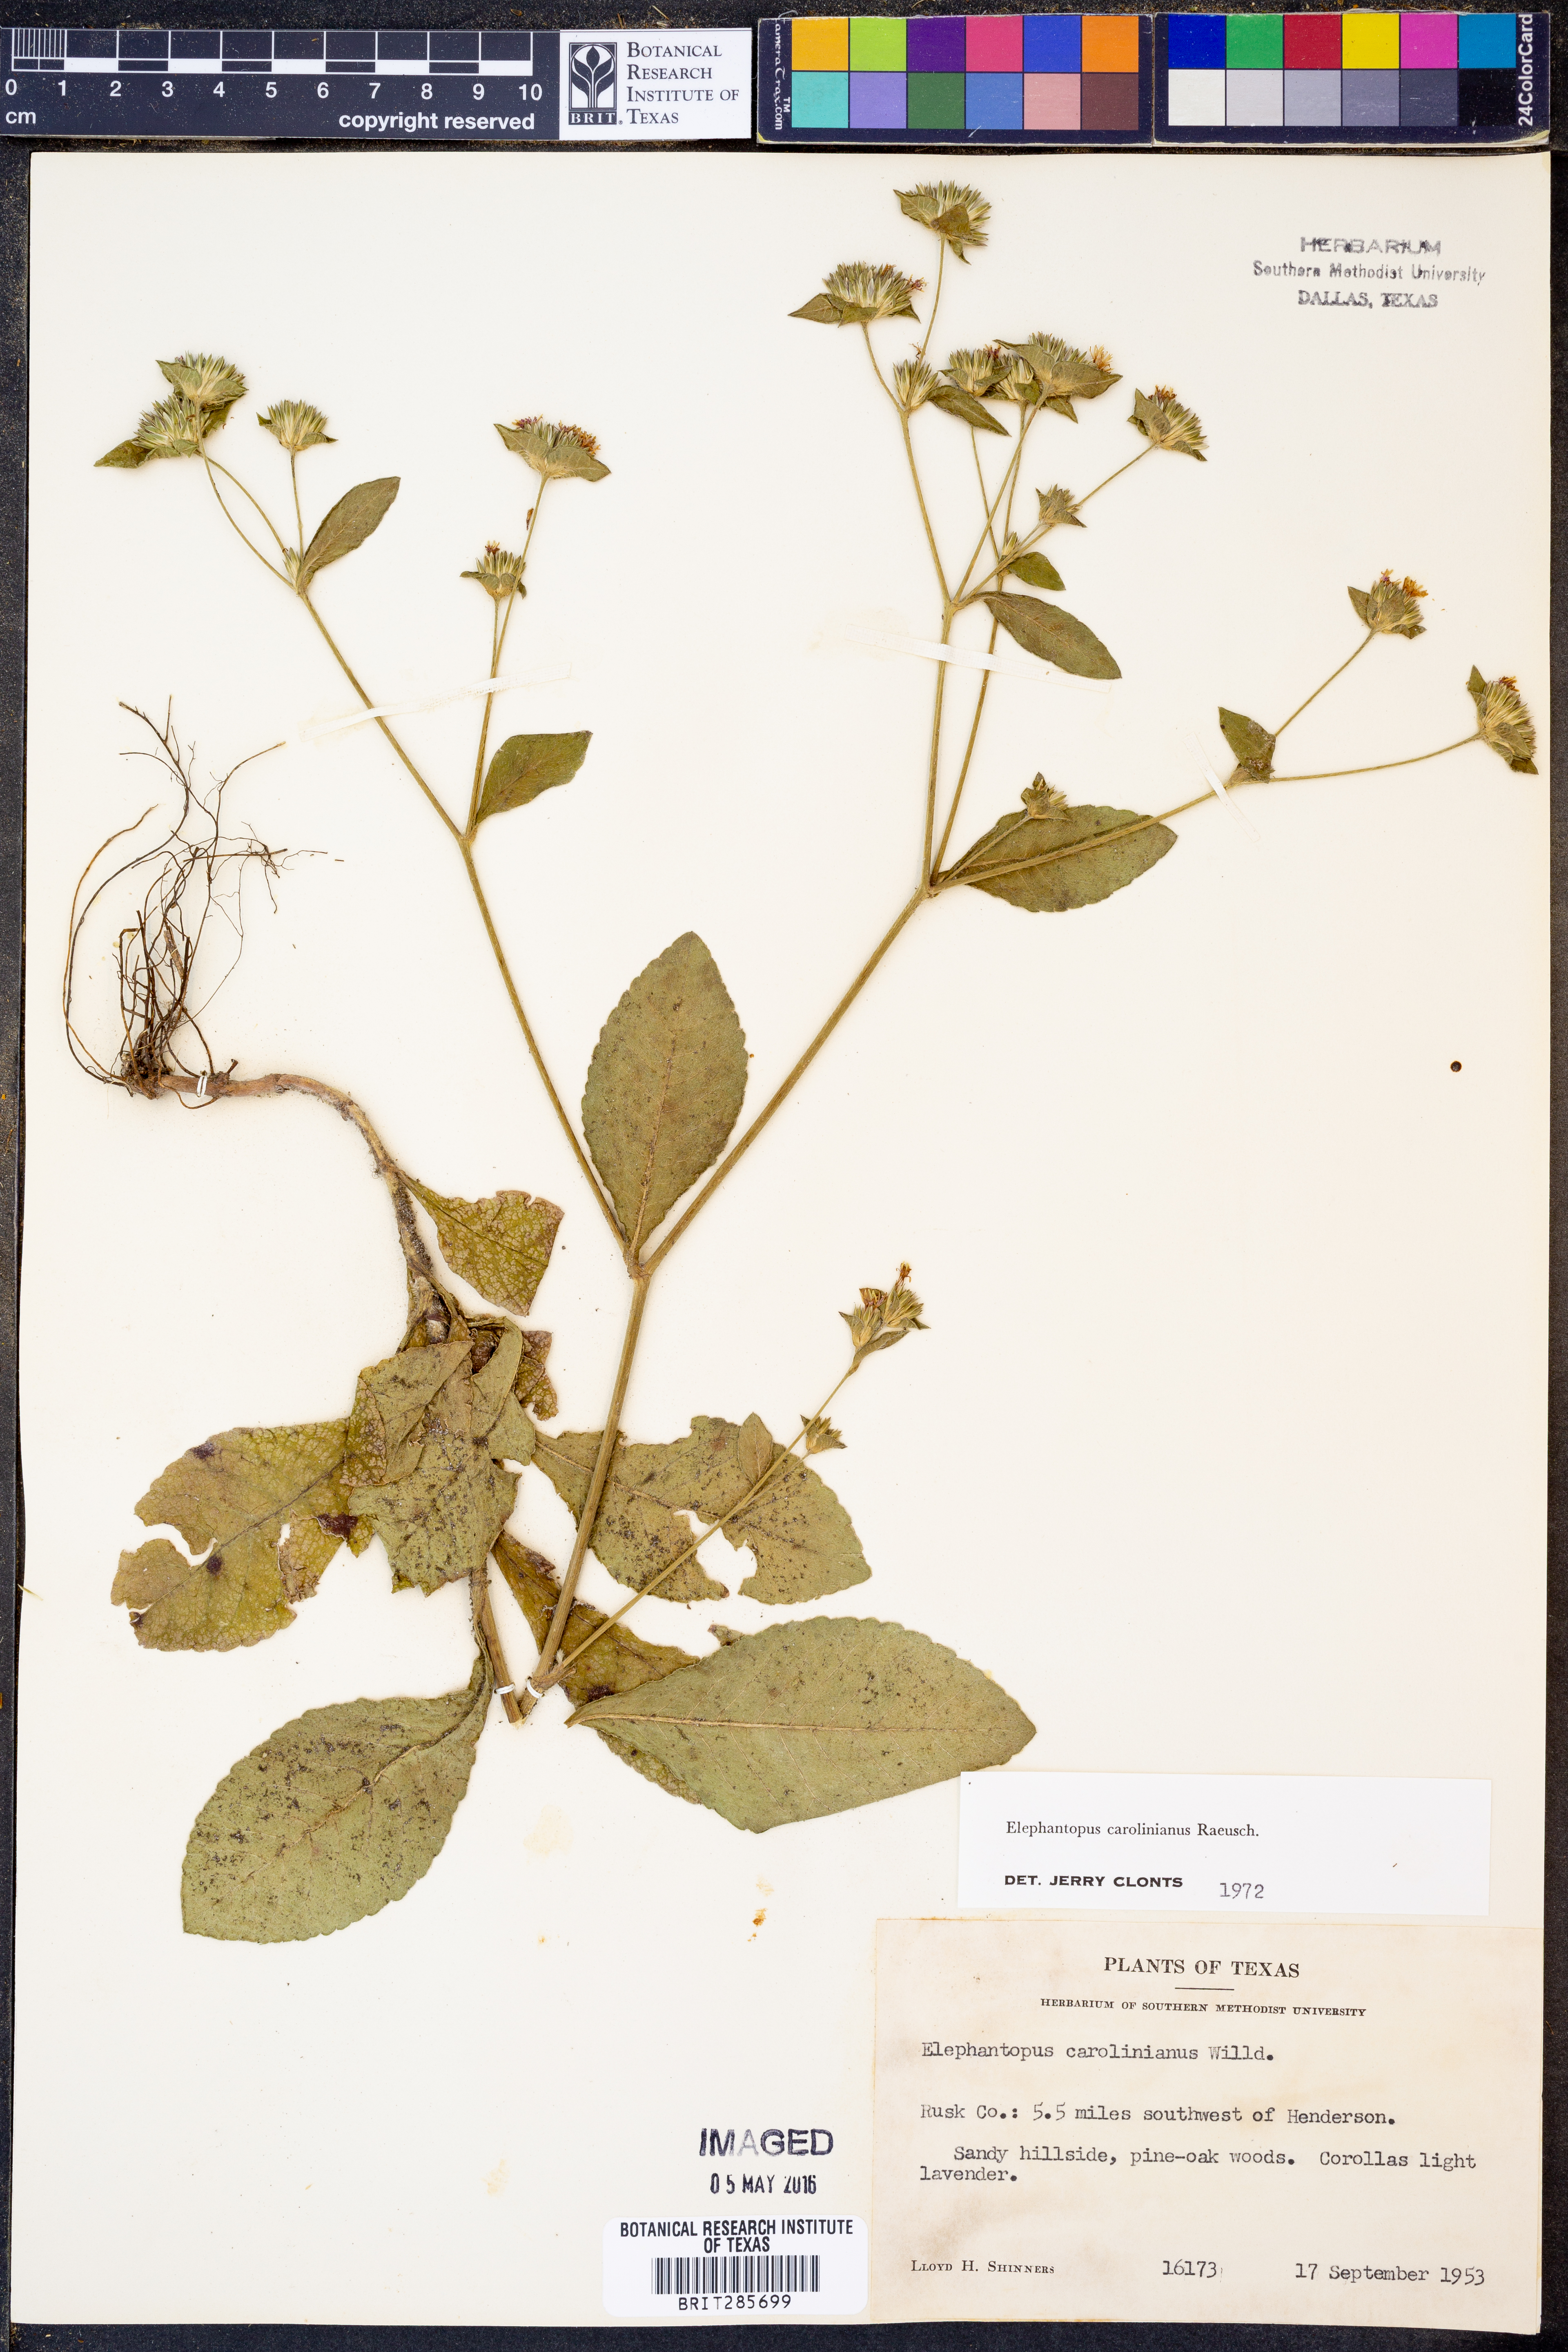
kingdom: Plantae
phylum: Tracheophyta
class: Magnoliopsida
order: Asterales
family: Asteraceae
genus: Elephantopus
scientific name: Elephantopus carolinianus
